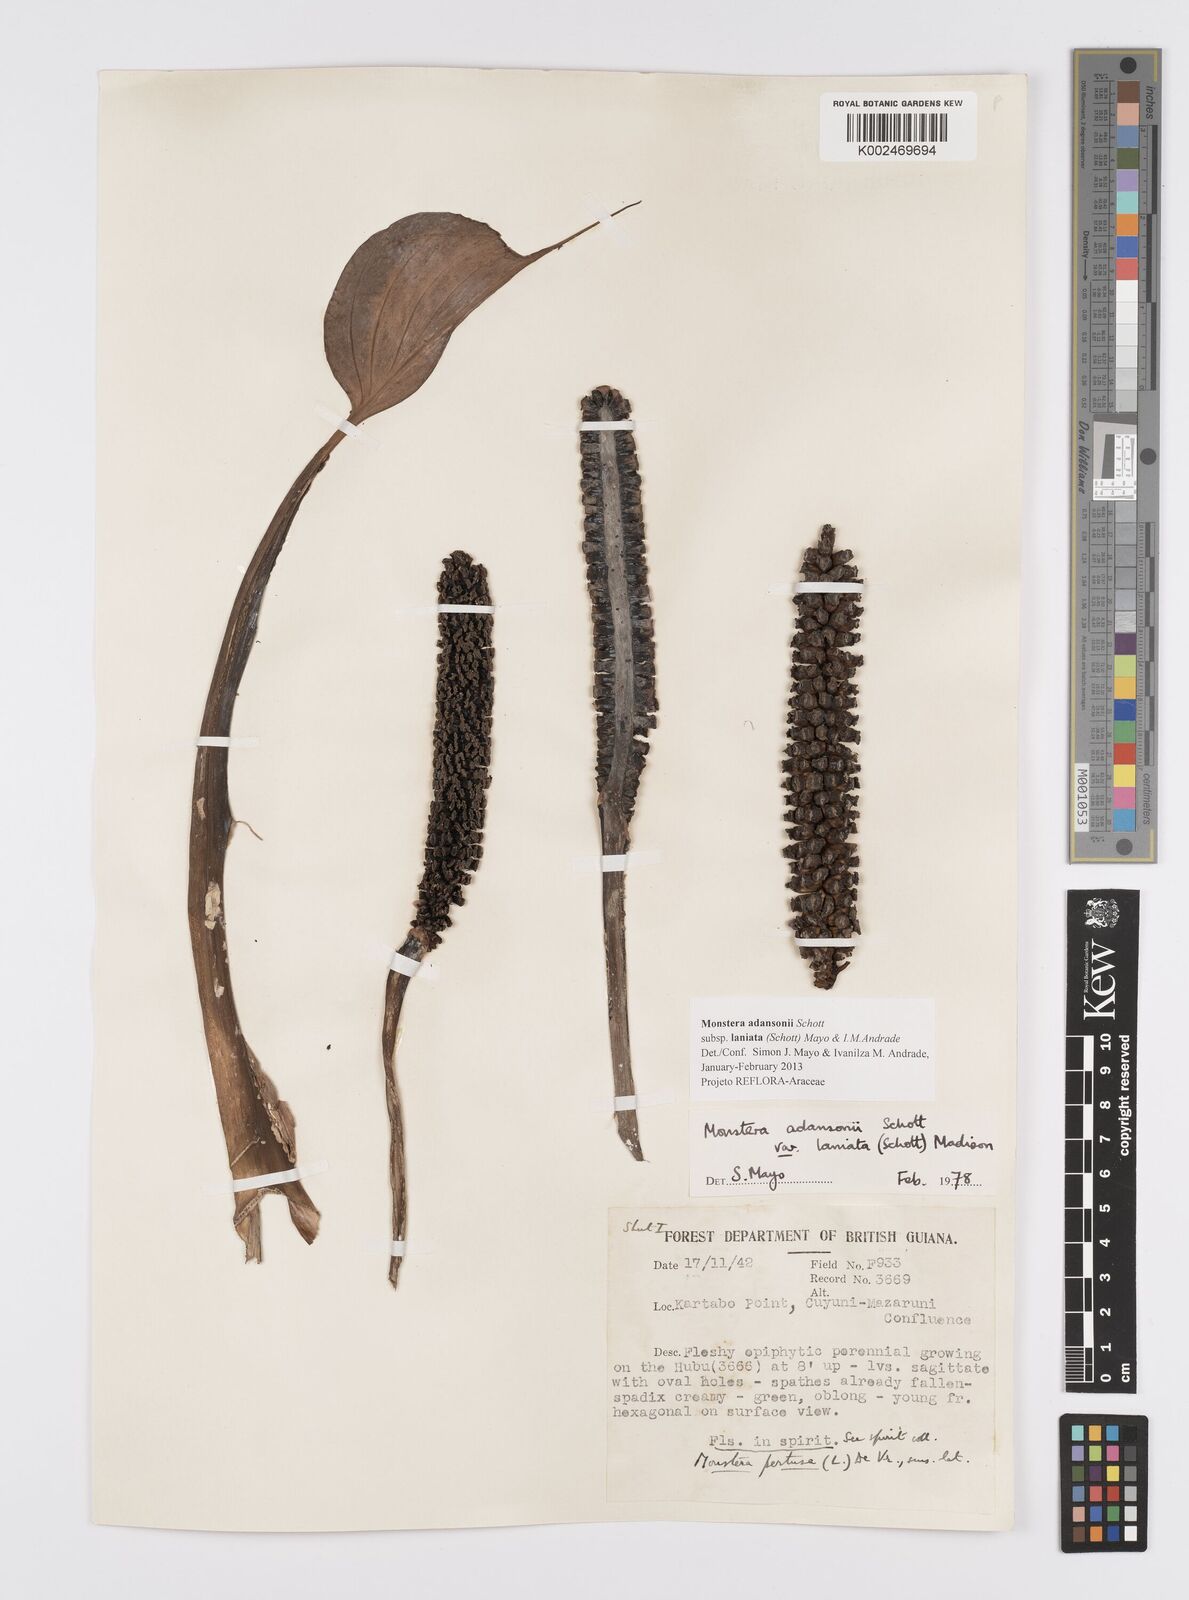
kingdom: Plantae
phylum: Tracheophyta
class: Liliopsida
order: Alismatales
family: Araceae
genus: Monstera
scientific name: Monstera adansonii
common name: Tarovine
